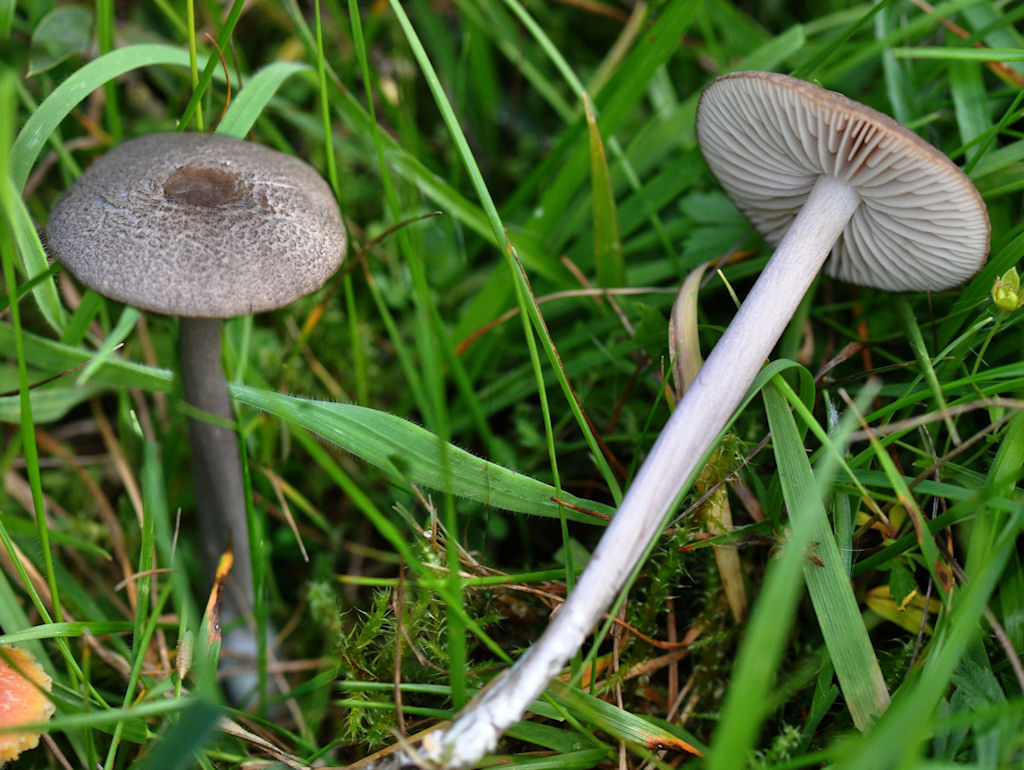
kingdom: Fungi
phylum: Basidiomycota
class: Agaricomycetes
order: Agaricales
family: Entolomataceae
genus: Entoloma
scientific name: Entoloma atrocoeruleum
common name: sortblå rødblad
